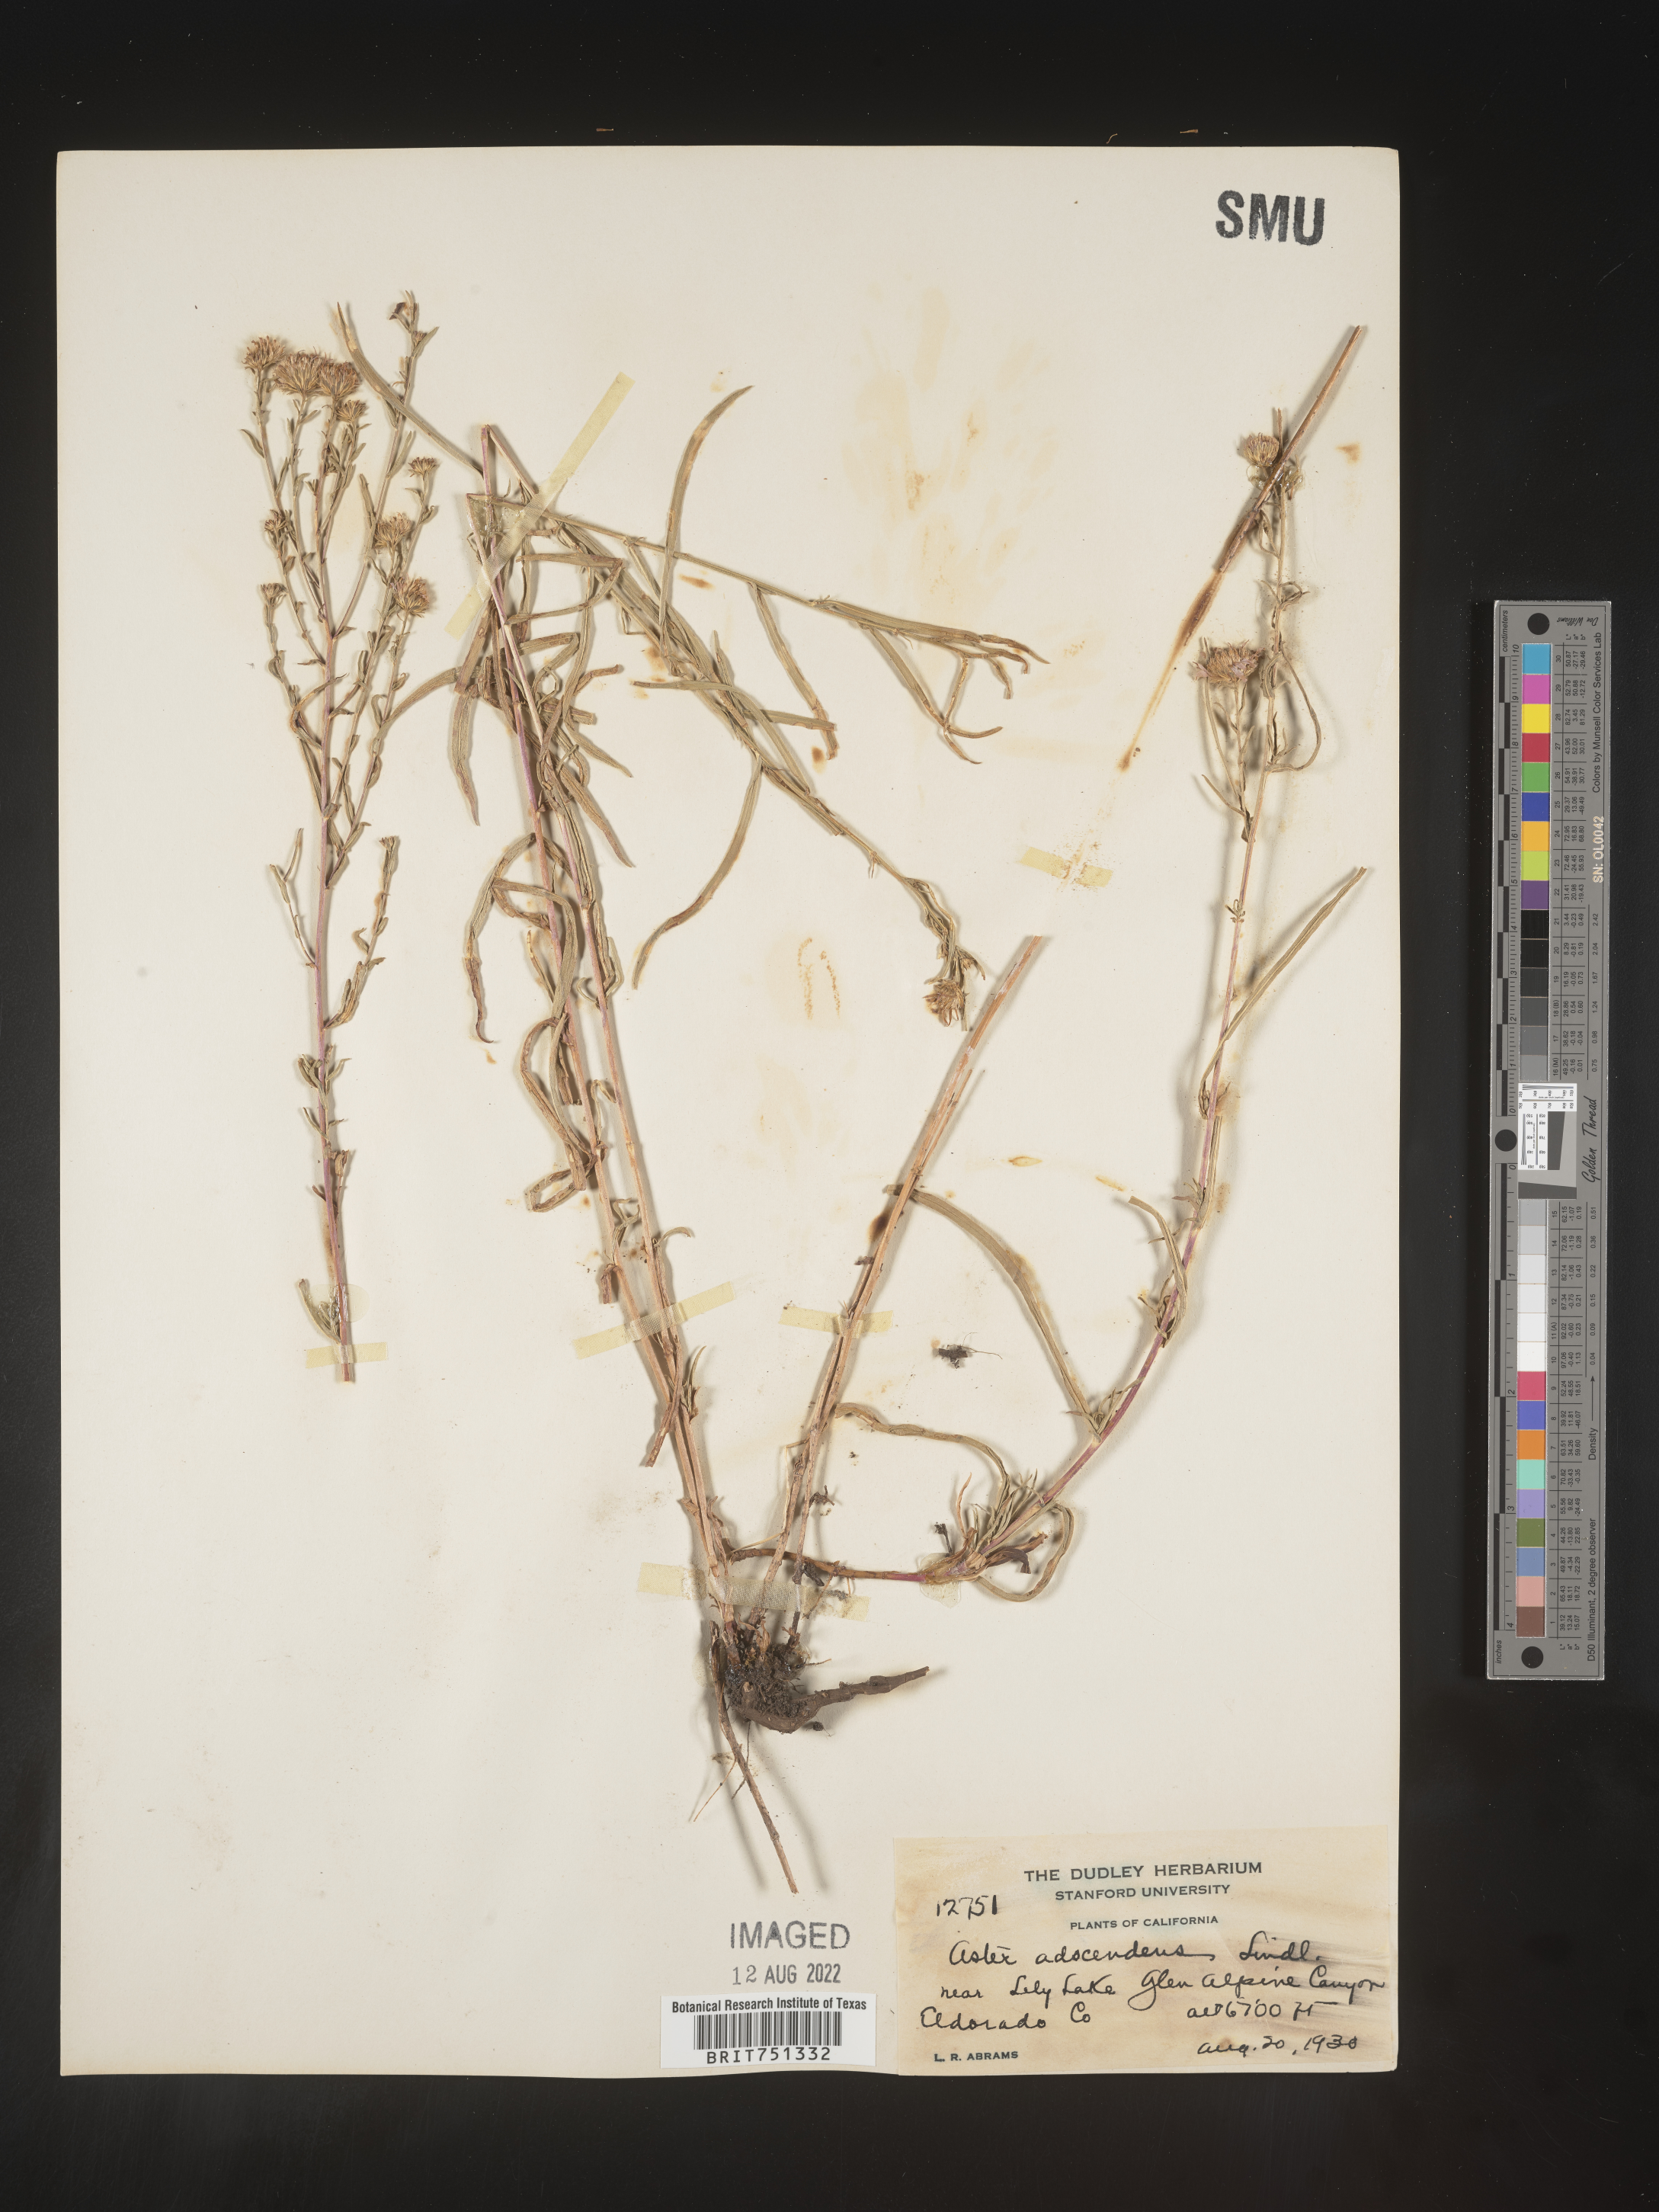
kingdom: Plantae
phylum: Tracheophyta
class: Magnoliopsida
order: Asterales
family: Asteraceae
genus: Aster
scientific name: Aster adscendens
